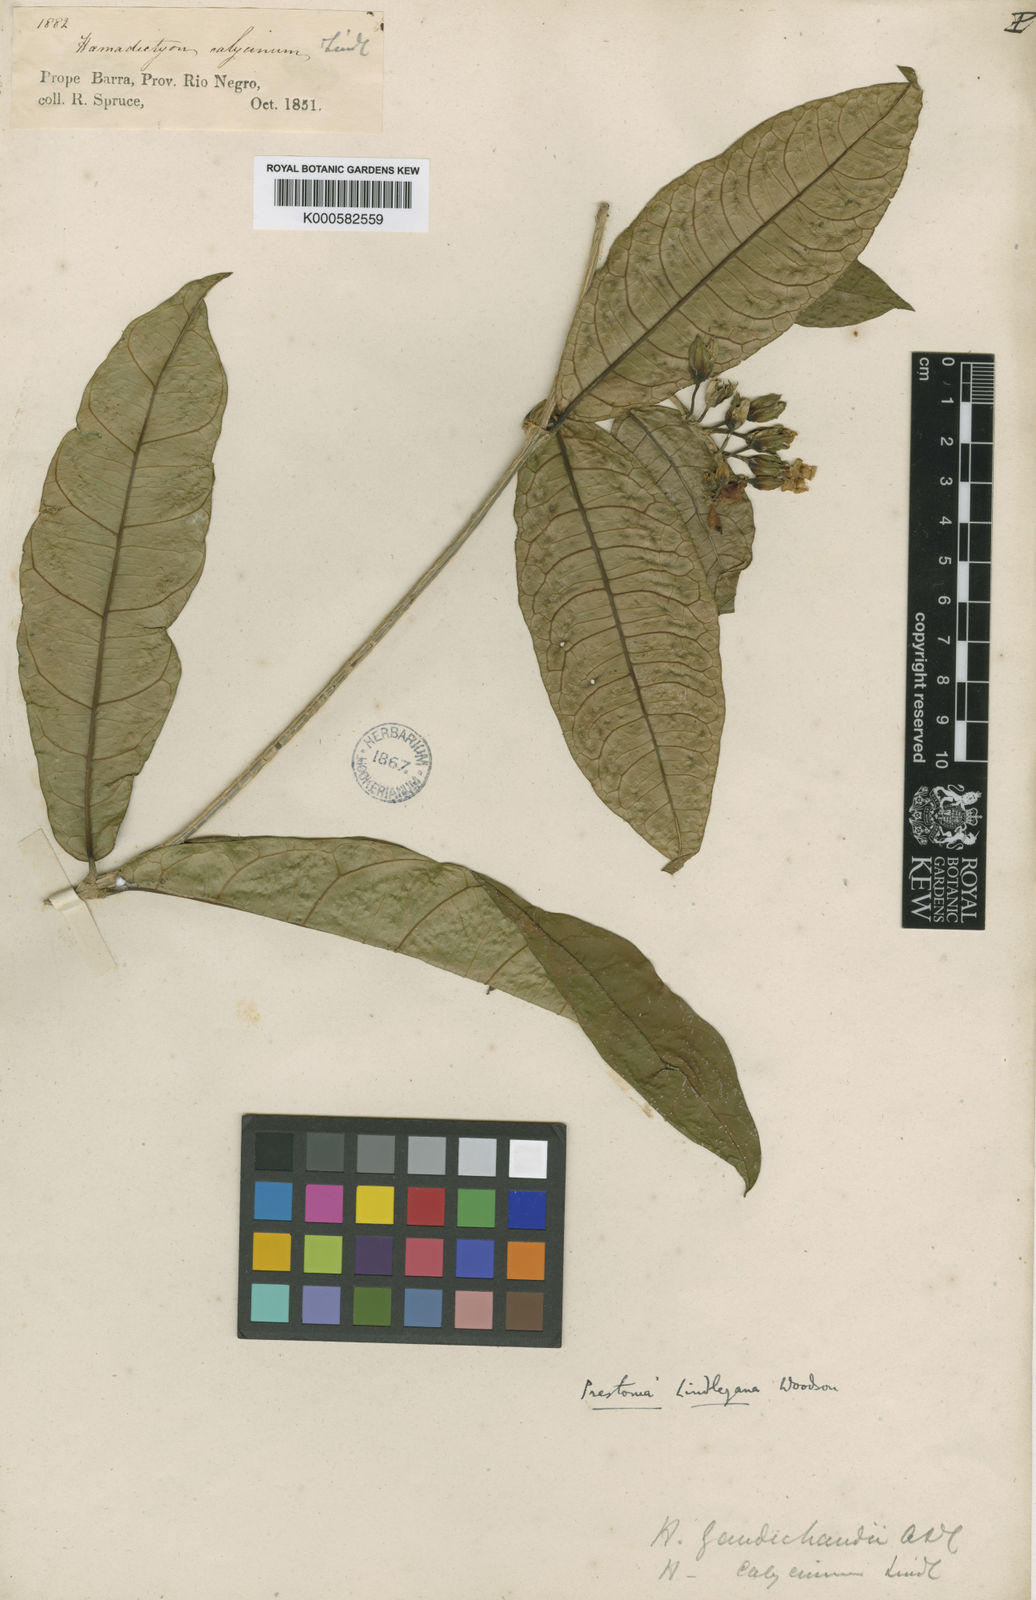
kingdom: Plantae
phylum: Tracheophyta
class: Magnoliopsida
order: Gentianales
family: Apocynaceae
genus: Prestonia
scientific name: Prestonia lindleyana
